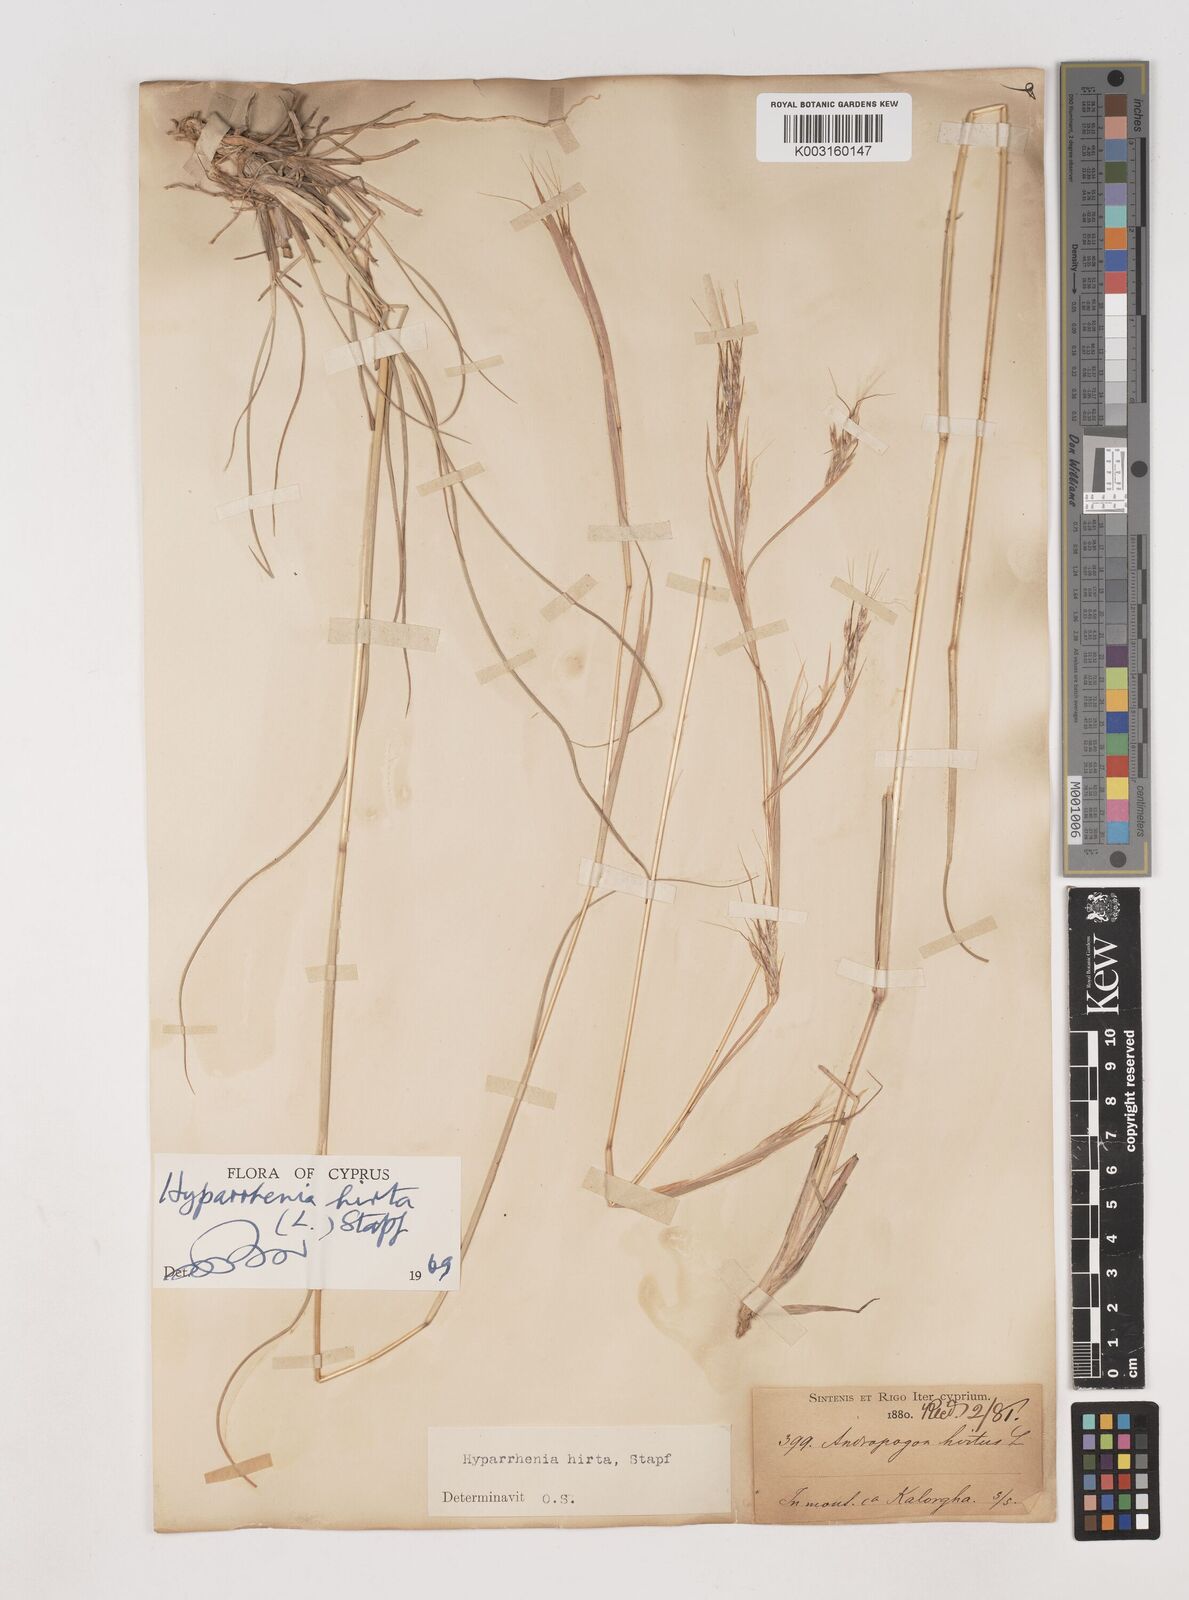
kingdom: Plantae
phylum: Tracheophyta
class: Liliopsida
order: Poales
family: Poaceae
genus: Hyparrhenia
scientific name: Hyparrhenia hirta
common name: Thatching grass
